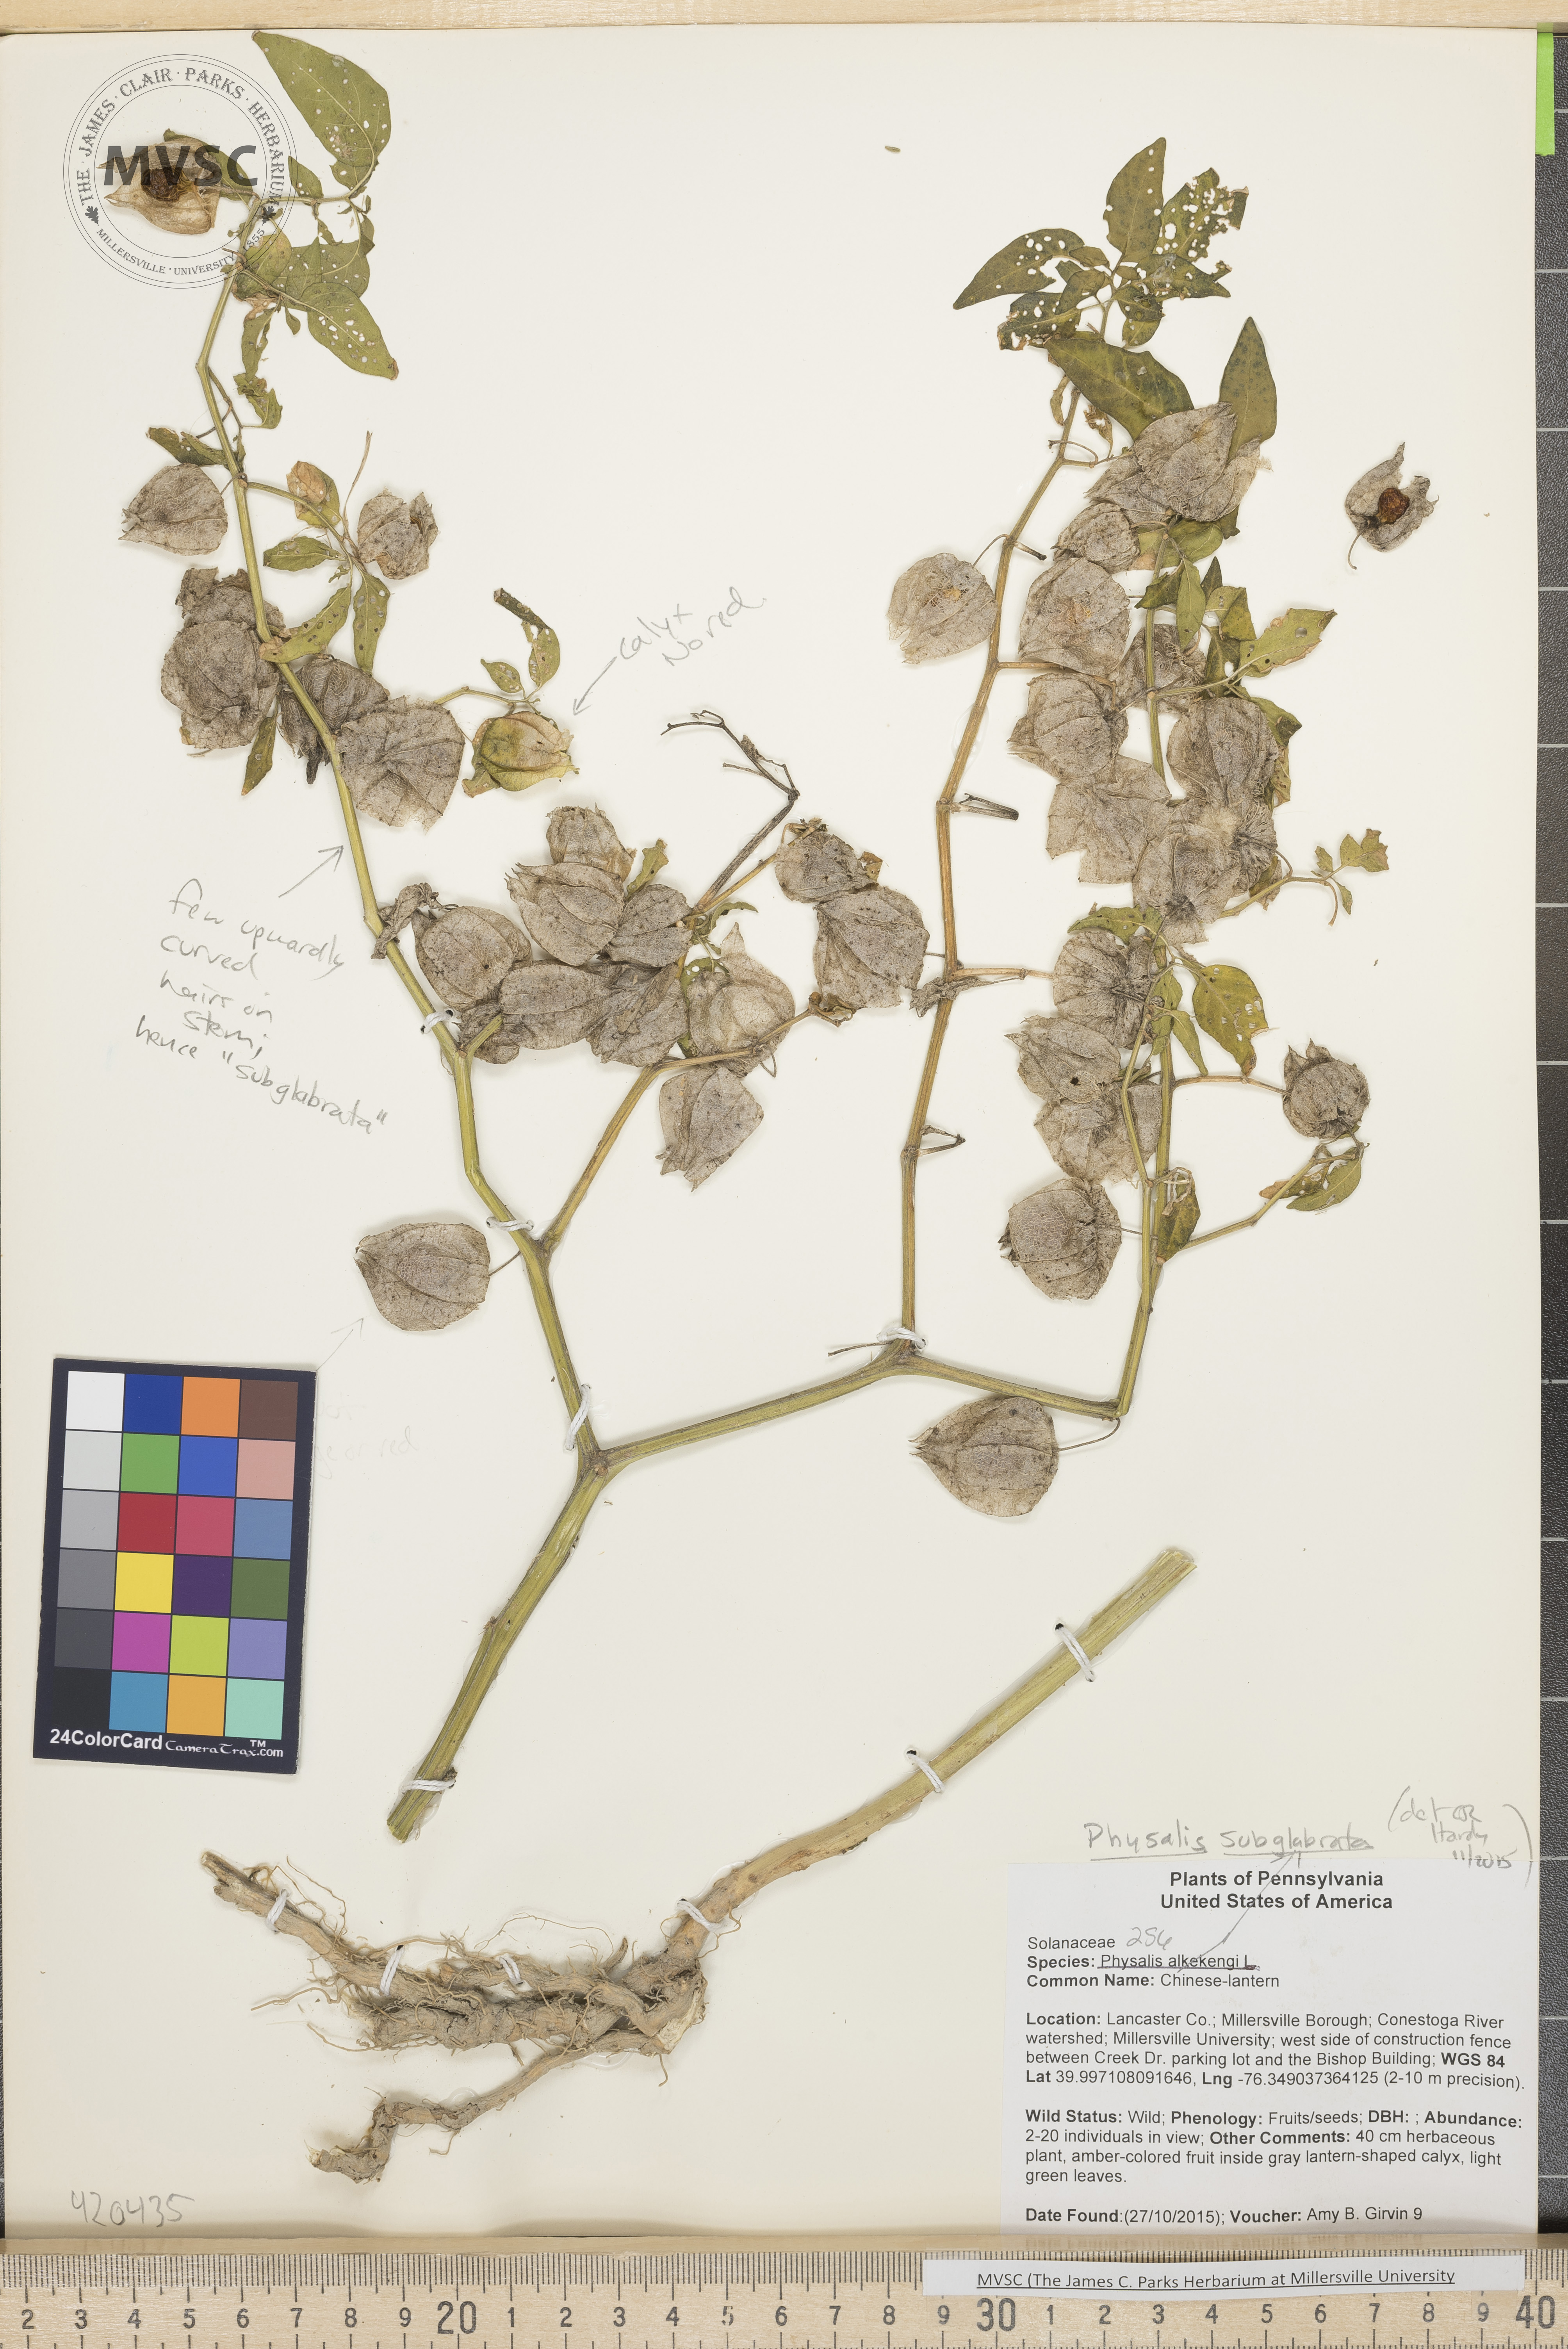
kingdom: Plantae
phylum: Tracheophyta
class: Magnoliopsida
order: Solanales
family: Solanaceae
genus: Physalis
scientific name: Physalis longifolia
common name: Ground-cherry
